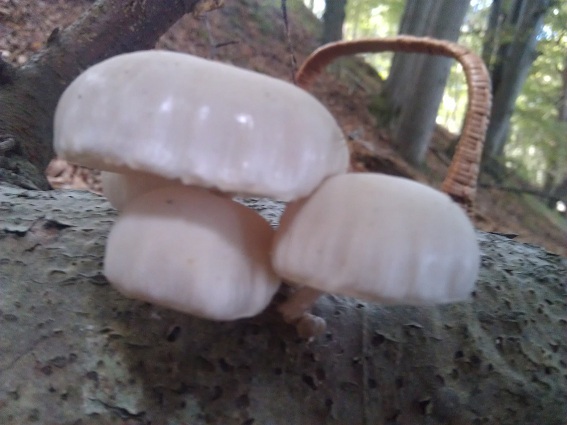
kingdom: Fungi
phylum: Basidiomycota
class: Agaricomycetes
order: Agaricales
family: Physalacriaceae
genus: Mucidula
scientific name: Mucidula mucida
